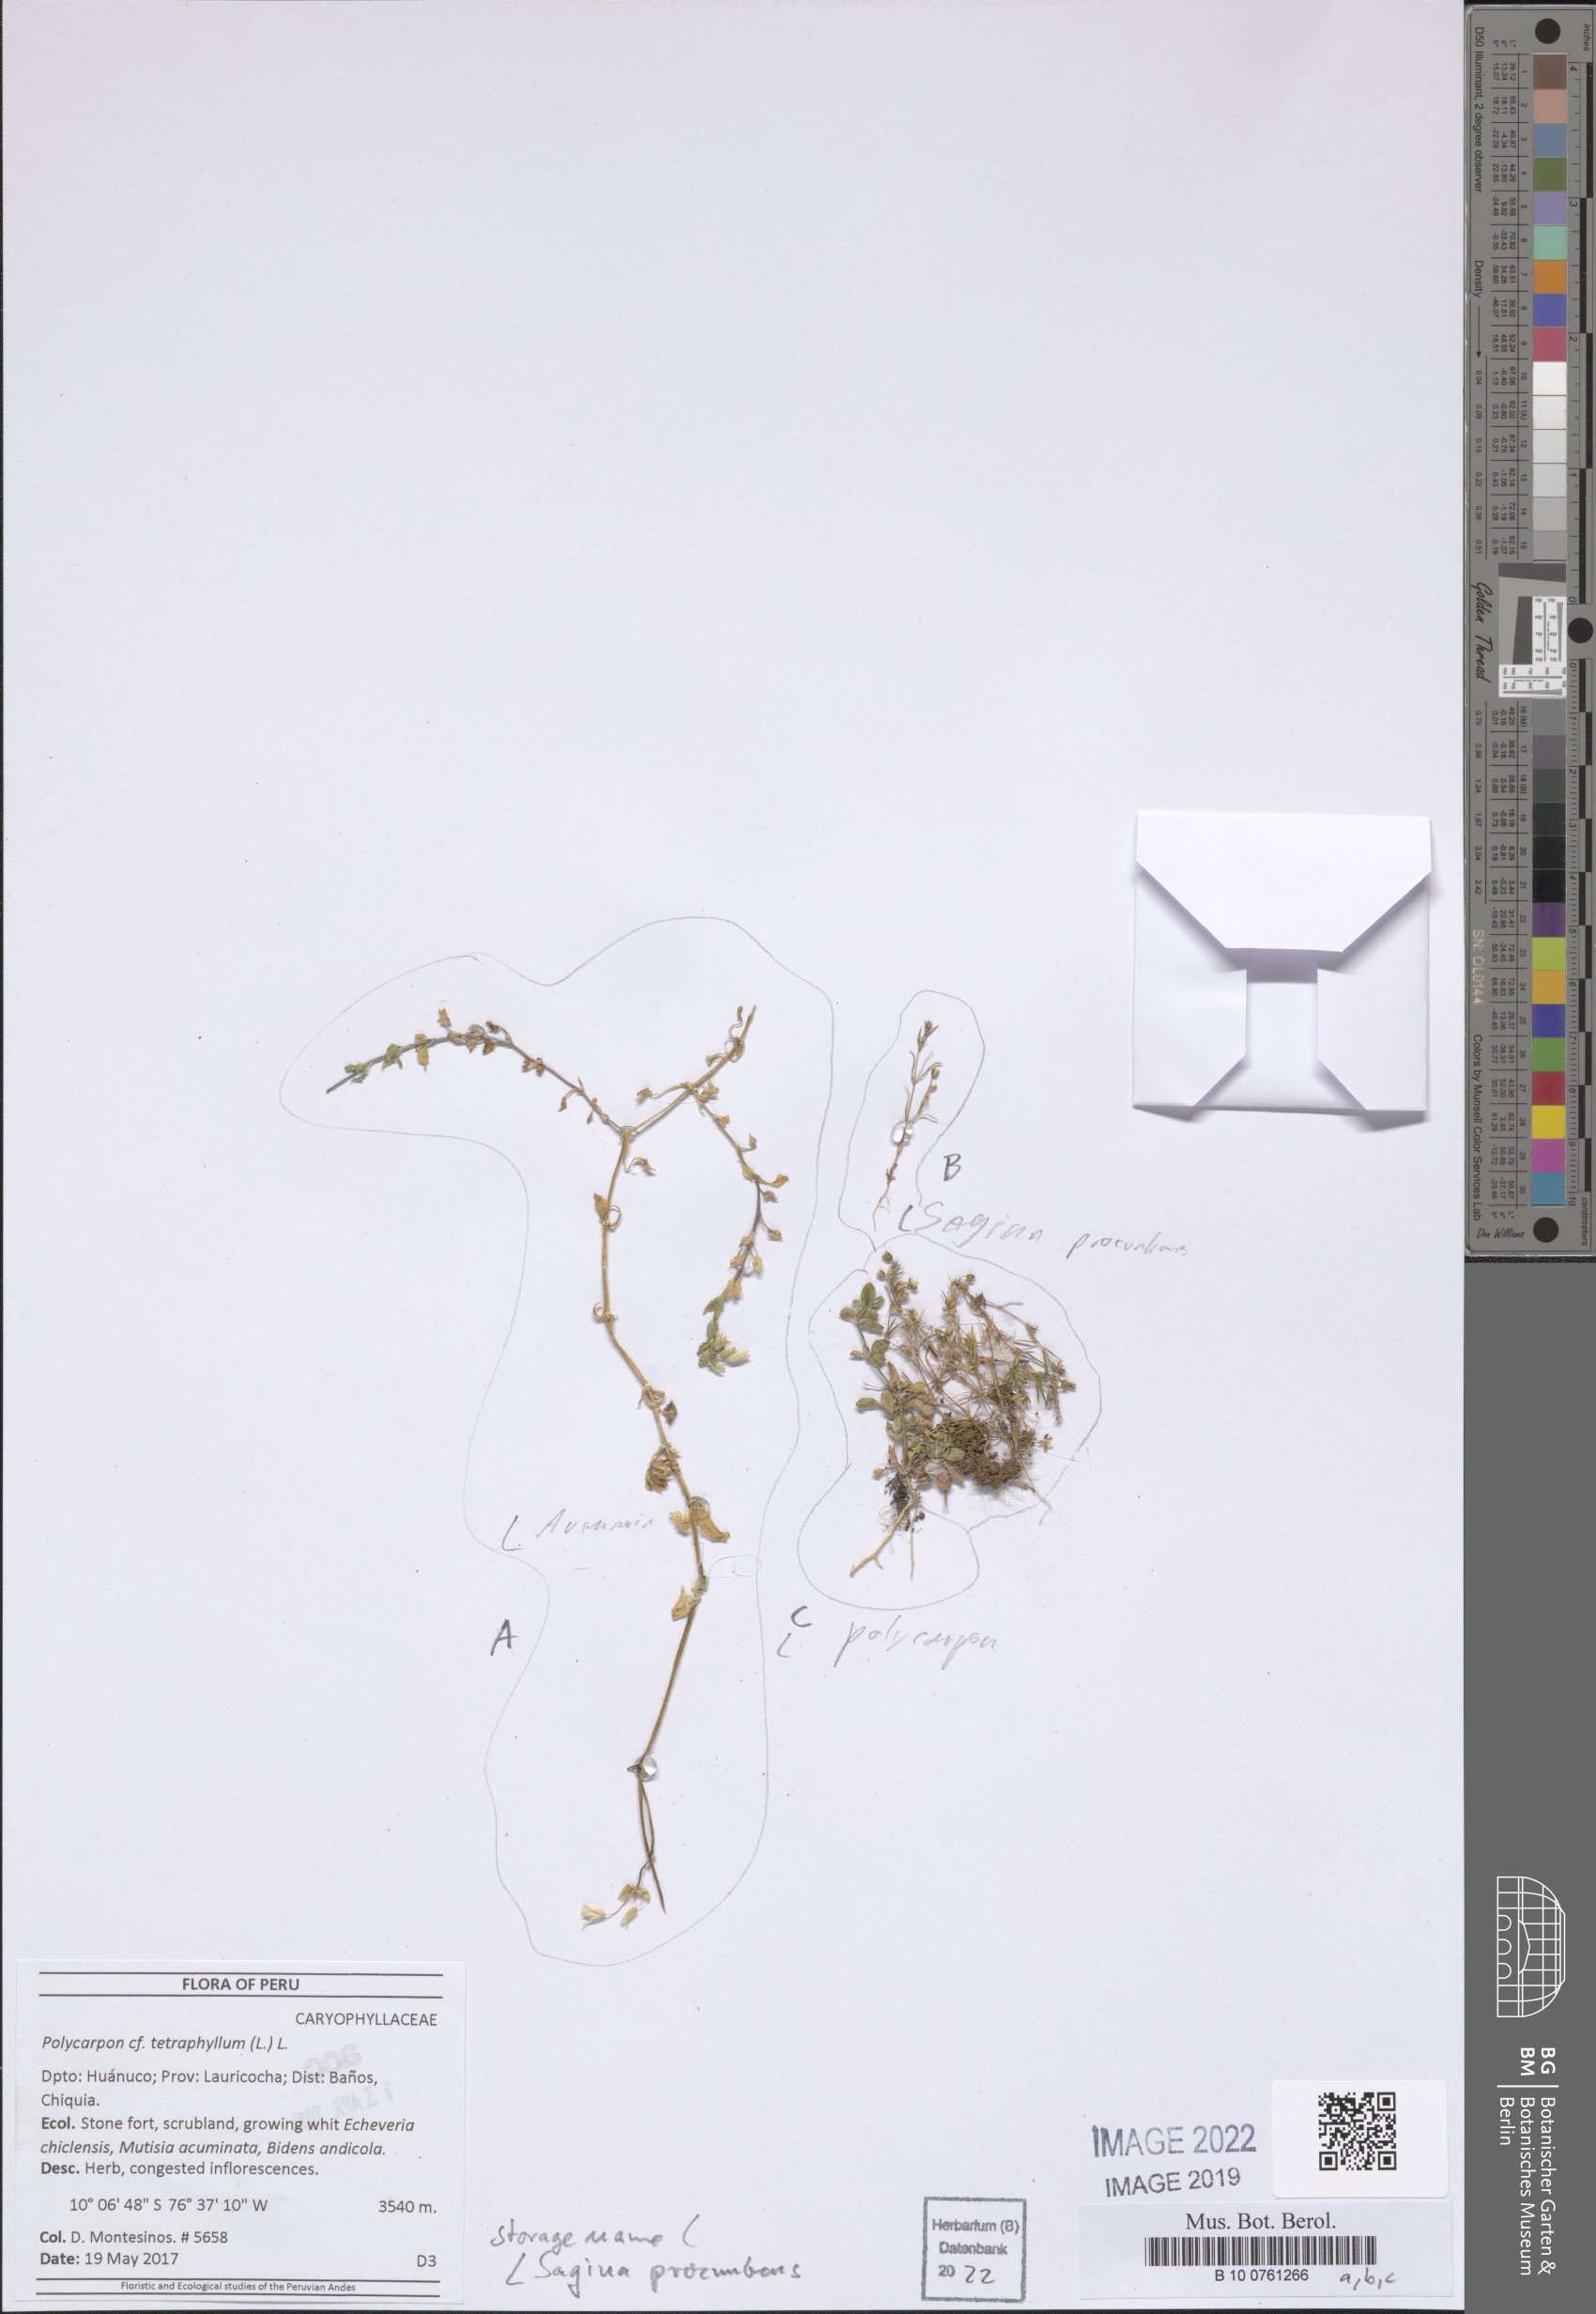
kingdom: Plantae
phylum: Tracheophyta
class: Magnoliopsida
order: Caryophyllales
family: Caryophyllaceae
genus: Sagina
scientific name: Sagina procumbens
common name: Procumbent pearlwort
